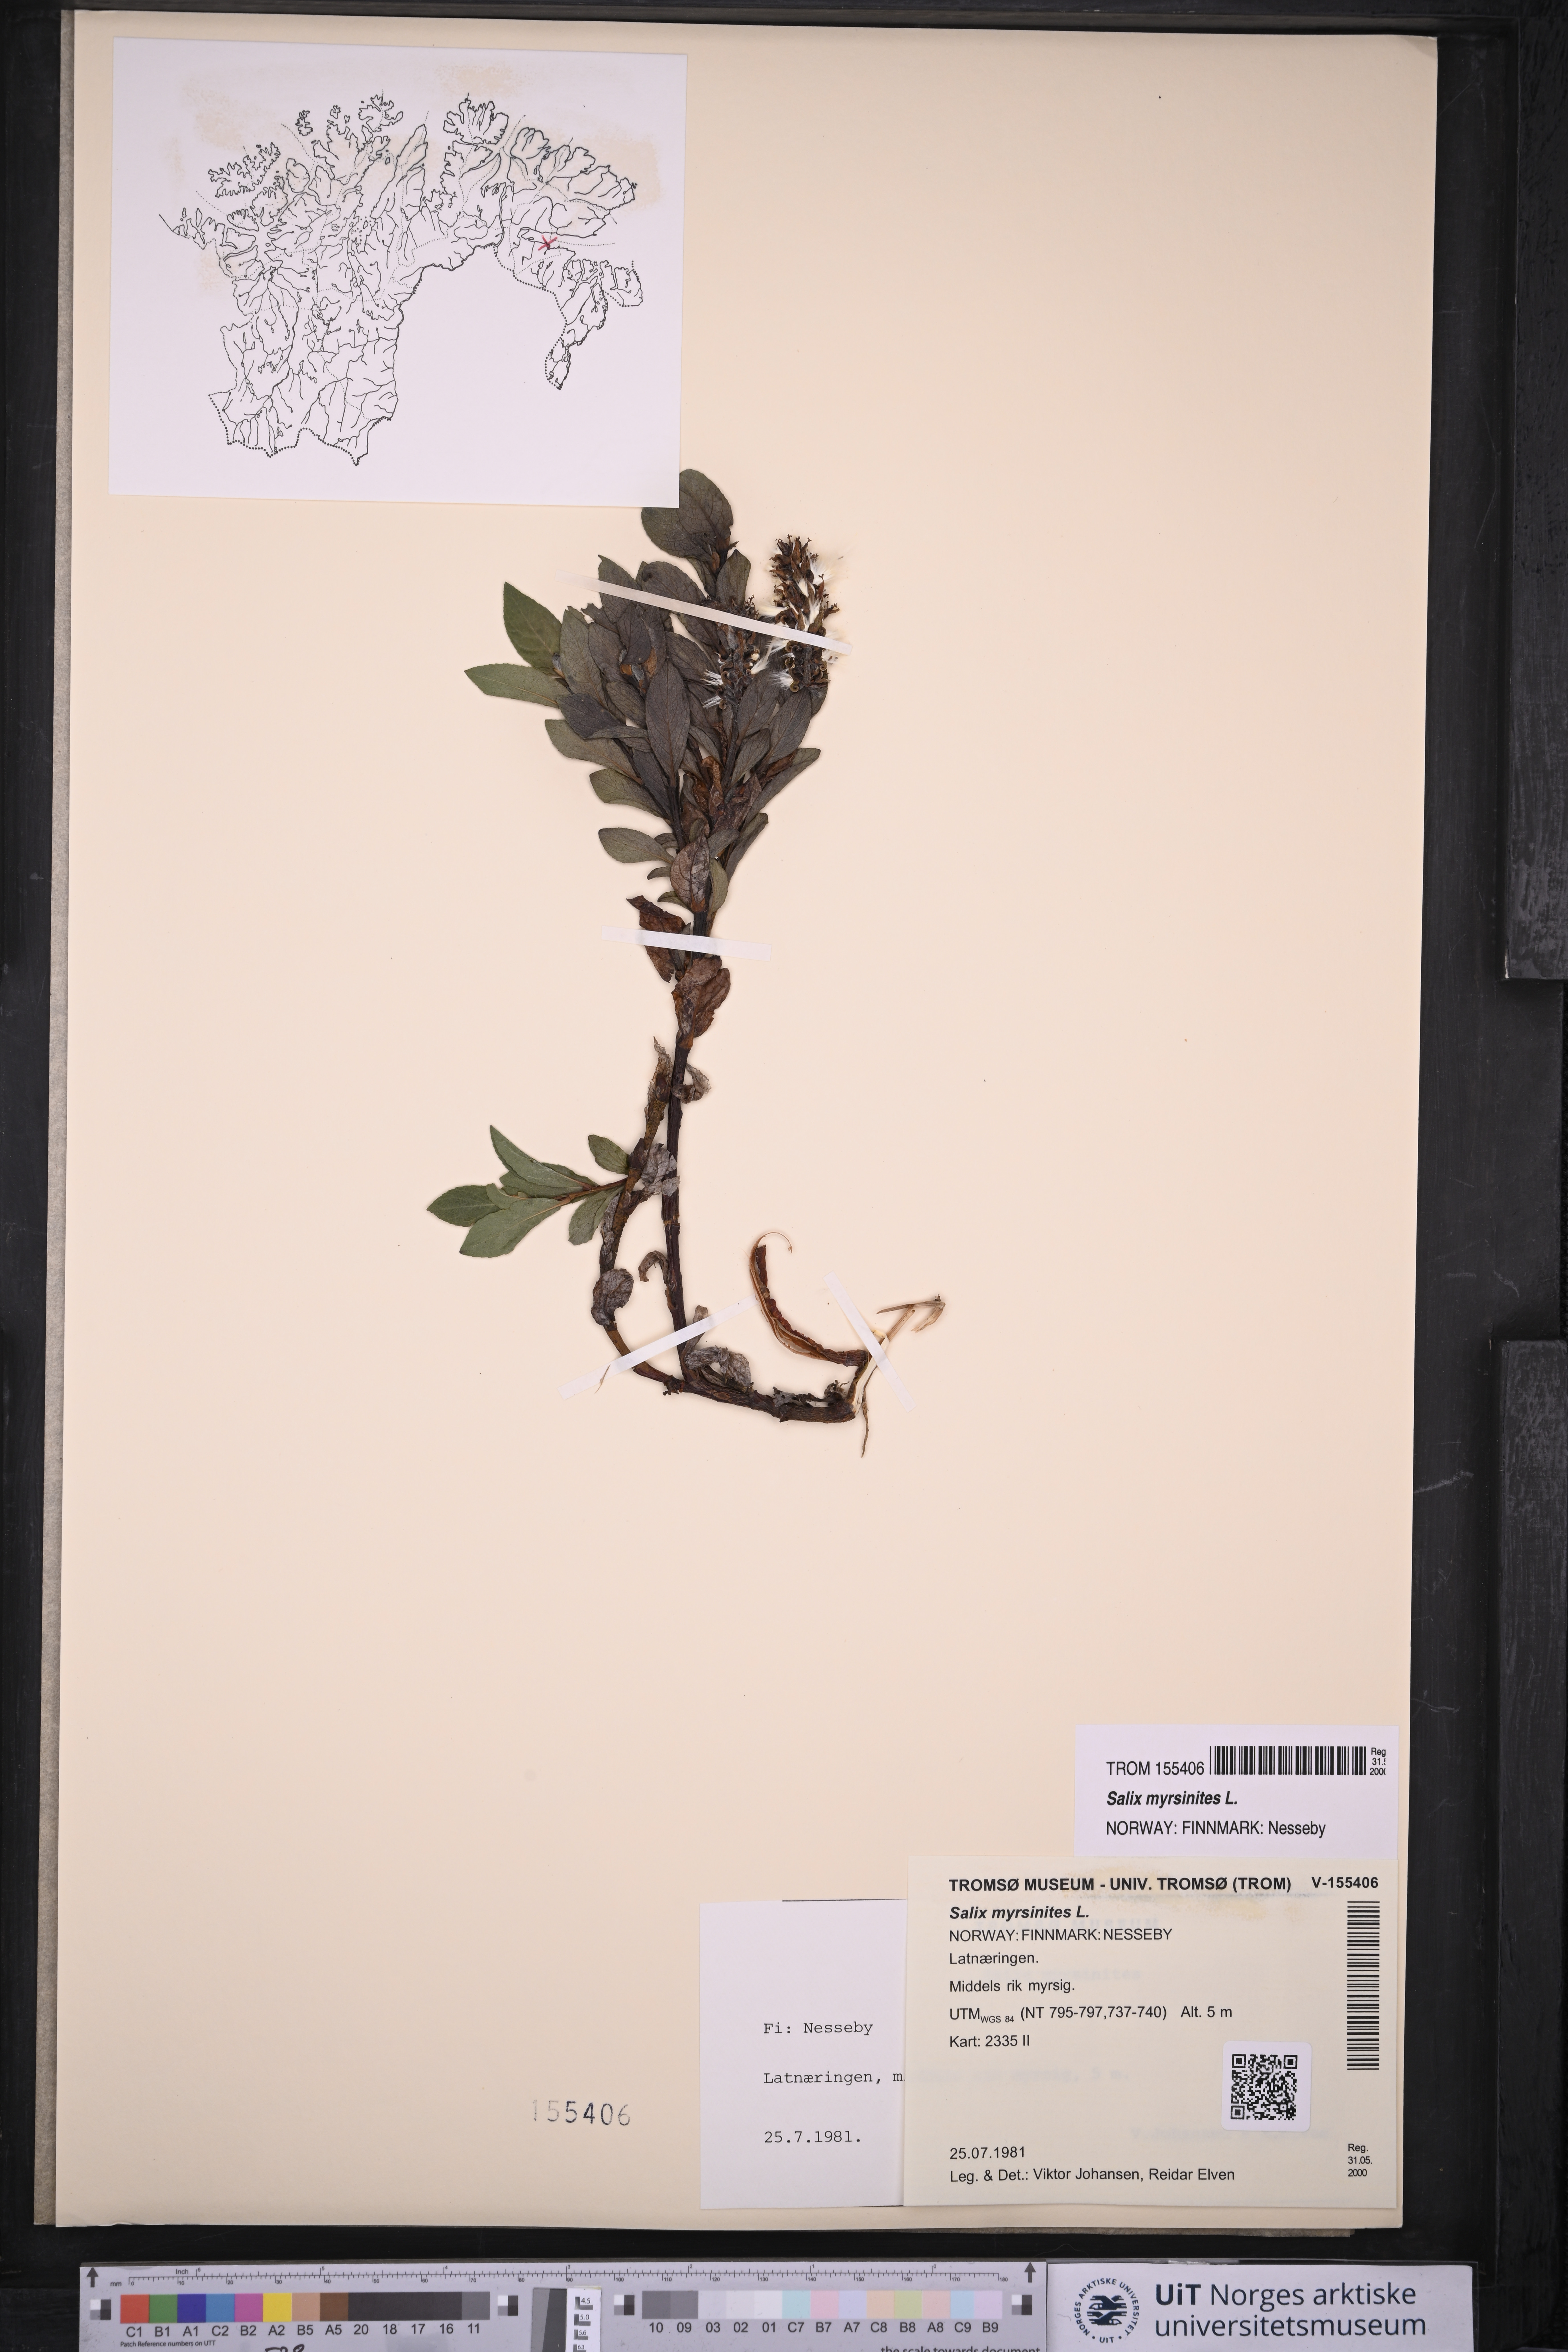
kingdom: Plantae
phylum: Tracheophyta
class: Magnoliopsida
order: Malpighiales
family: Salicaceae
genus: Salix
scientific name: Salix myrsinites
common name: Myrtle willow
